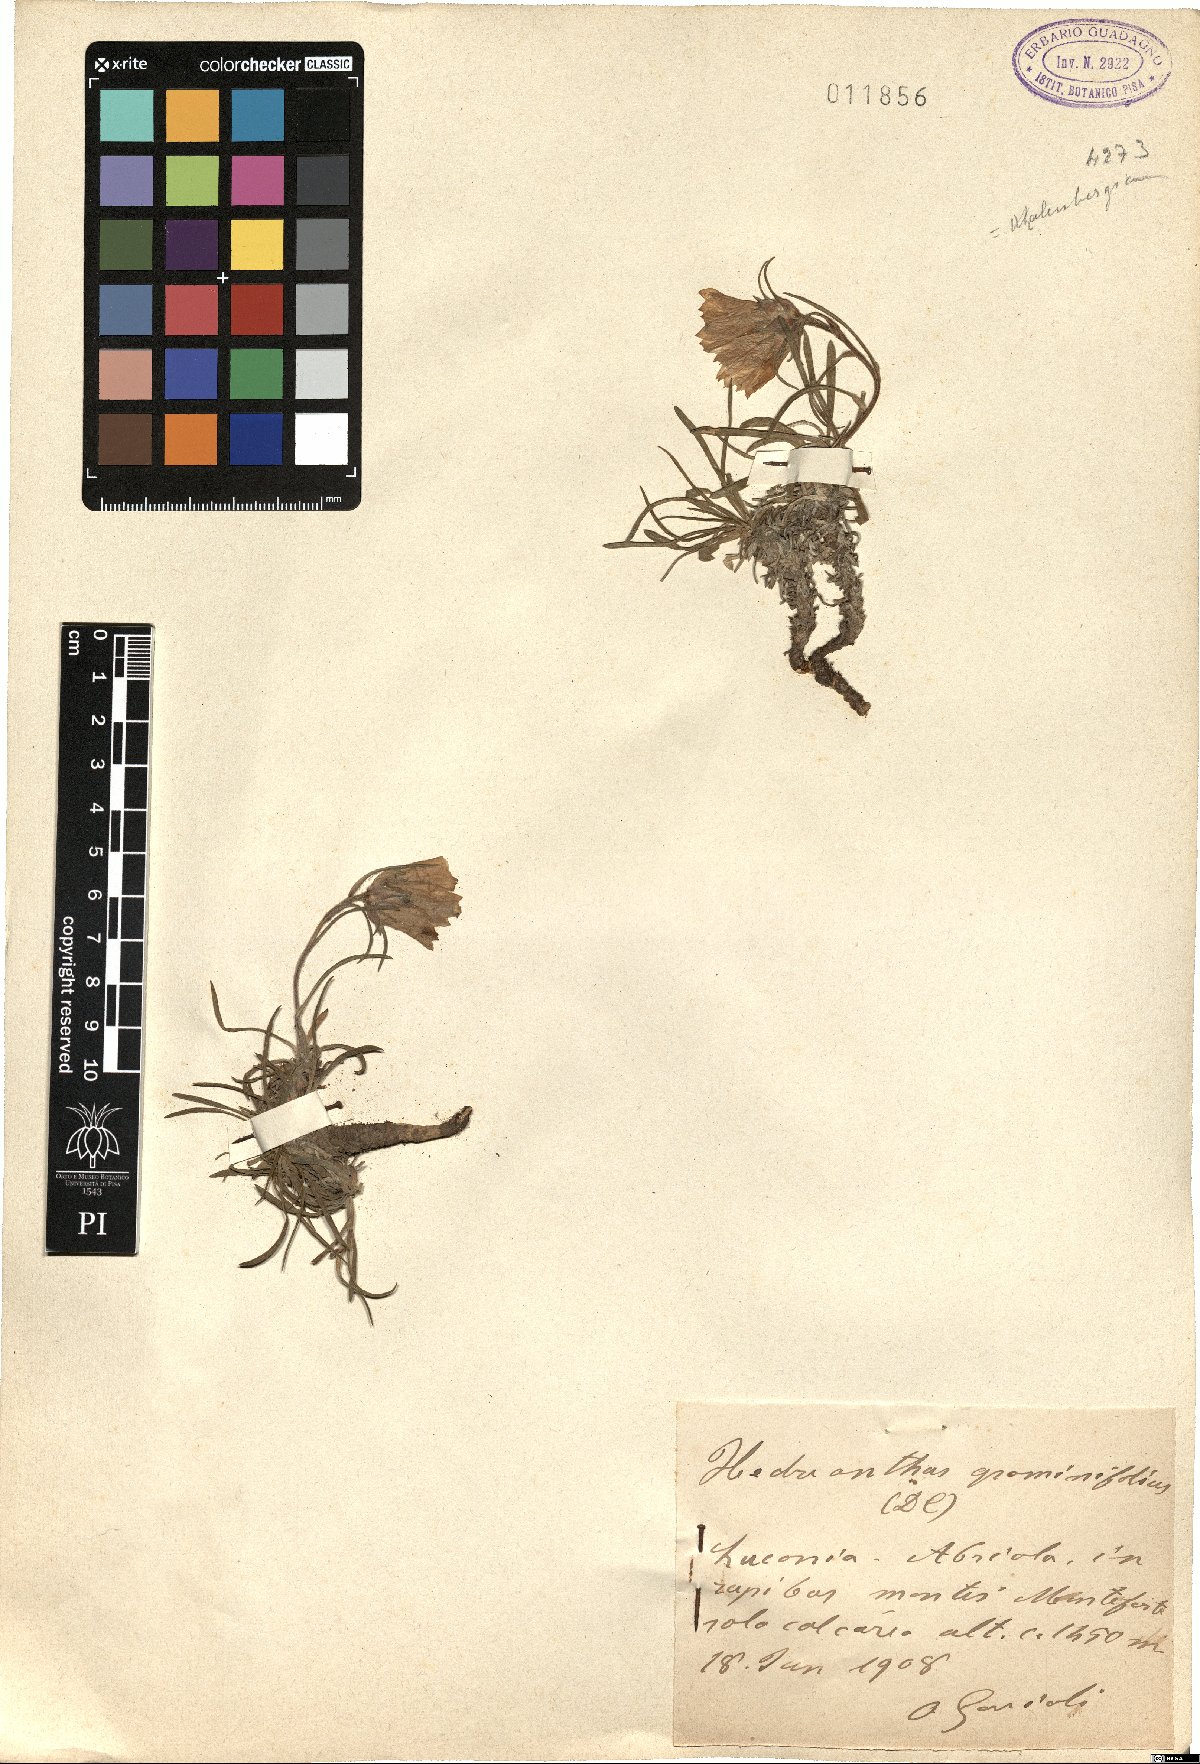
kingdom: Plantae
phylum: Tracheophyta
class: Magnoliopsida
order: Asterales
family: Campanulaceae
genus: Edraianthus
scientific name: Edraianthus graminifolius
